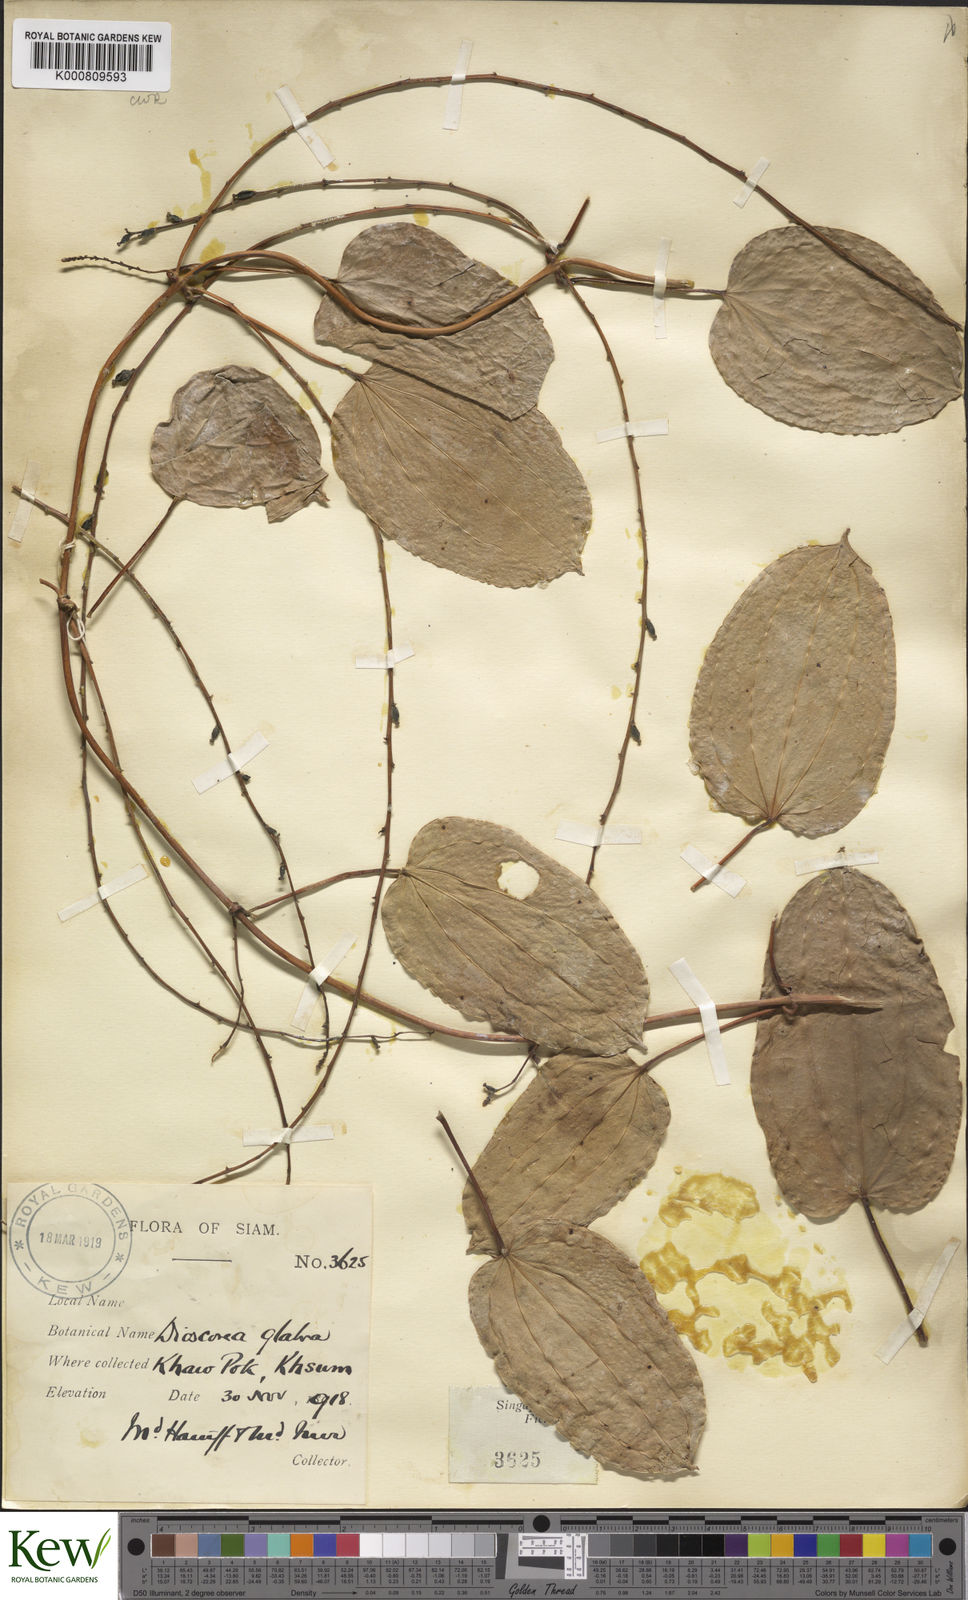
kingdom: Plantae
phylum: Tracheophyta
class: Liliopsida
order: Dioscoreales
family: Dioscoreaceae
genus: Dioscorea
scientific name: Dioscorea glabra
